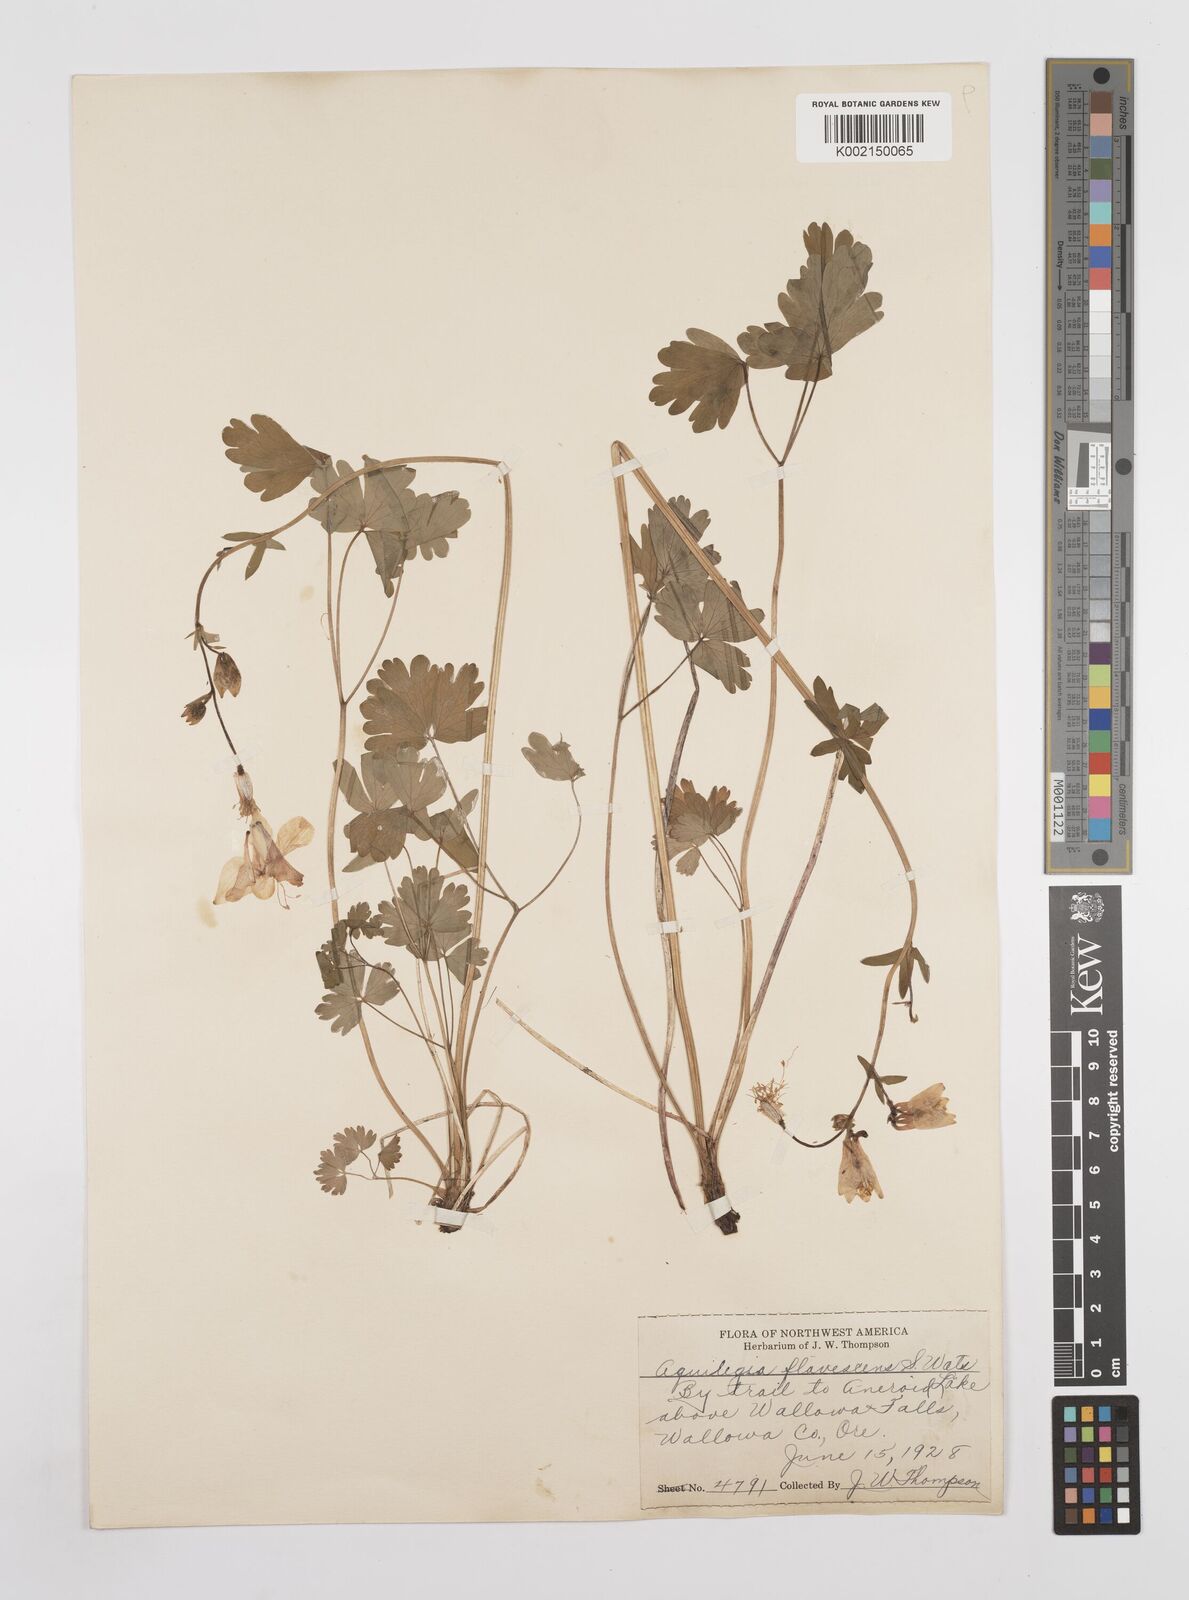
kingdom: Plantae
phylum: Tracheophyta
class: Magnoliopsida
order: Ranunculales
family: Ranunculaceae
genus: Aquilegia
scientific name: Aquilegia flavescens
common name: Yellow columbine
